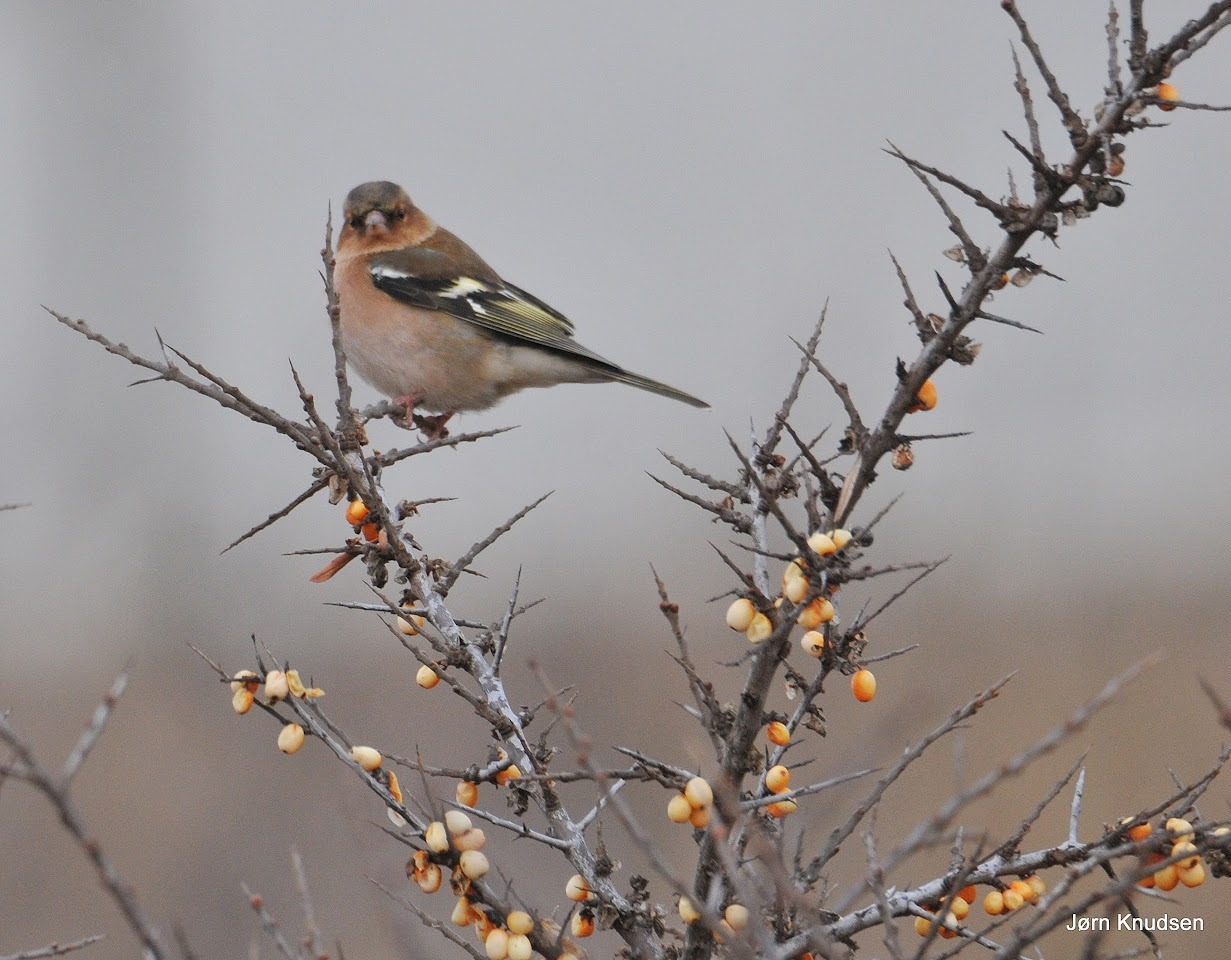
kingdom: Animalia
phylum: Chordata
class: Aves
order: Passeriformes
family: Fringillidae
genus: Fringilla
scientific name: Fringilla coelebs
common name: Bogfinke
